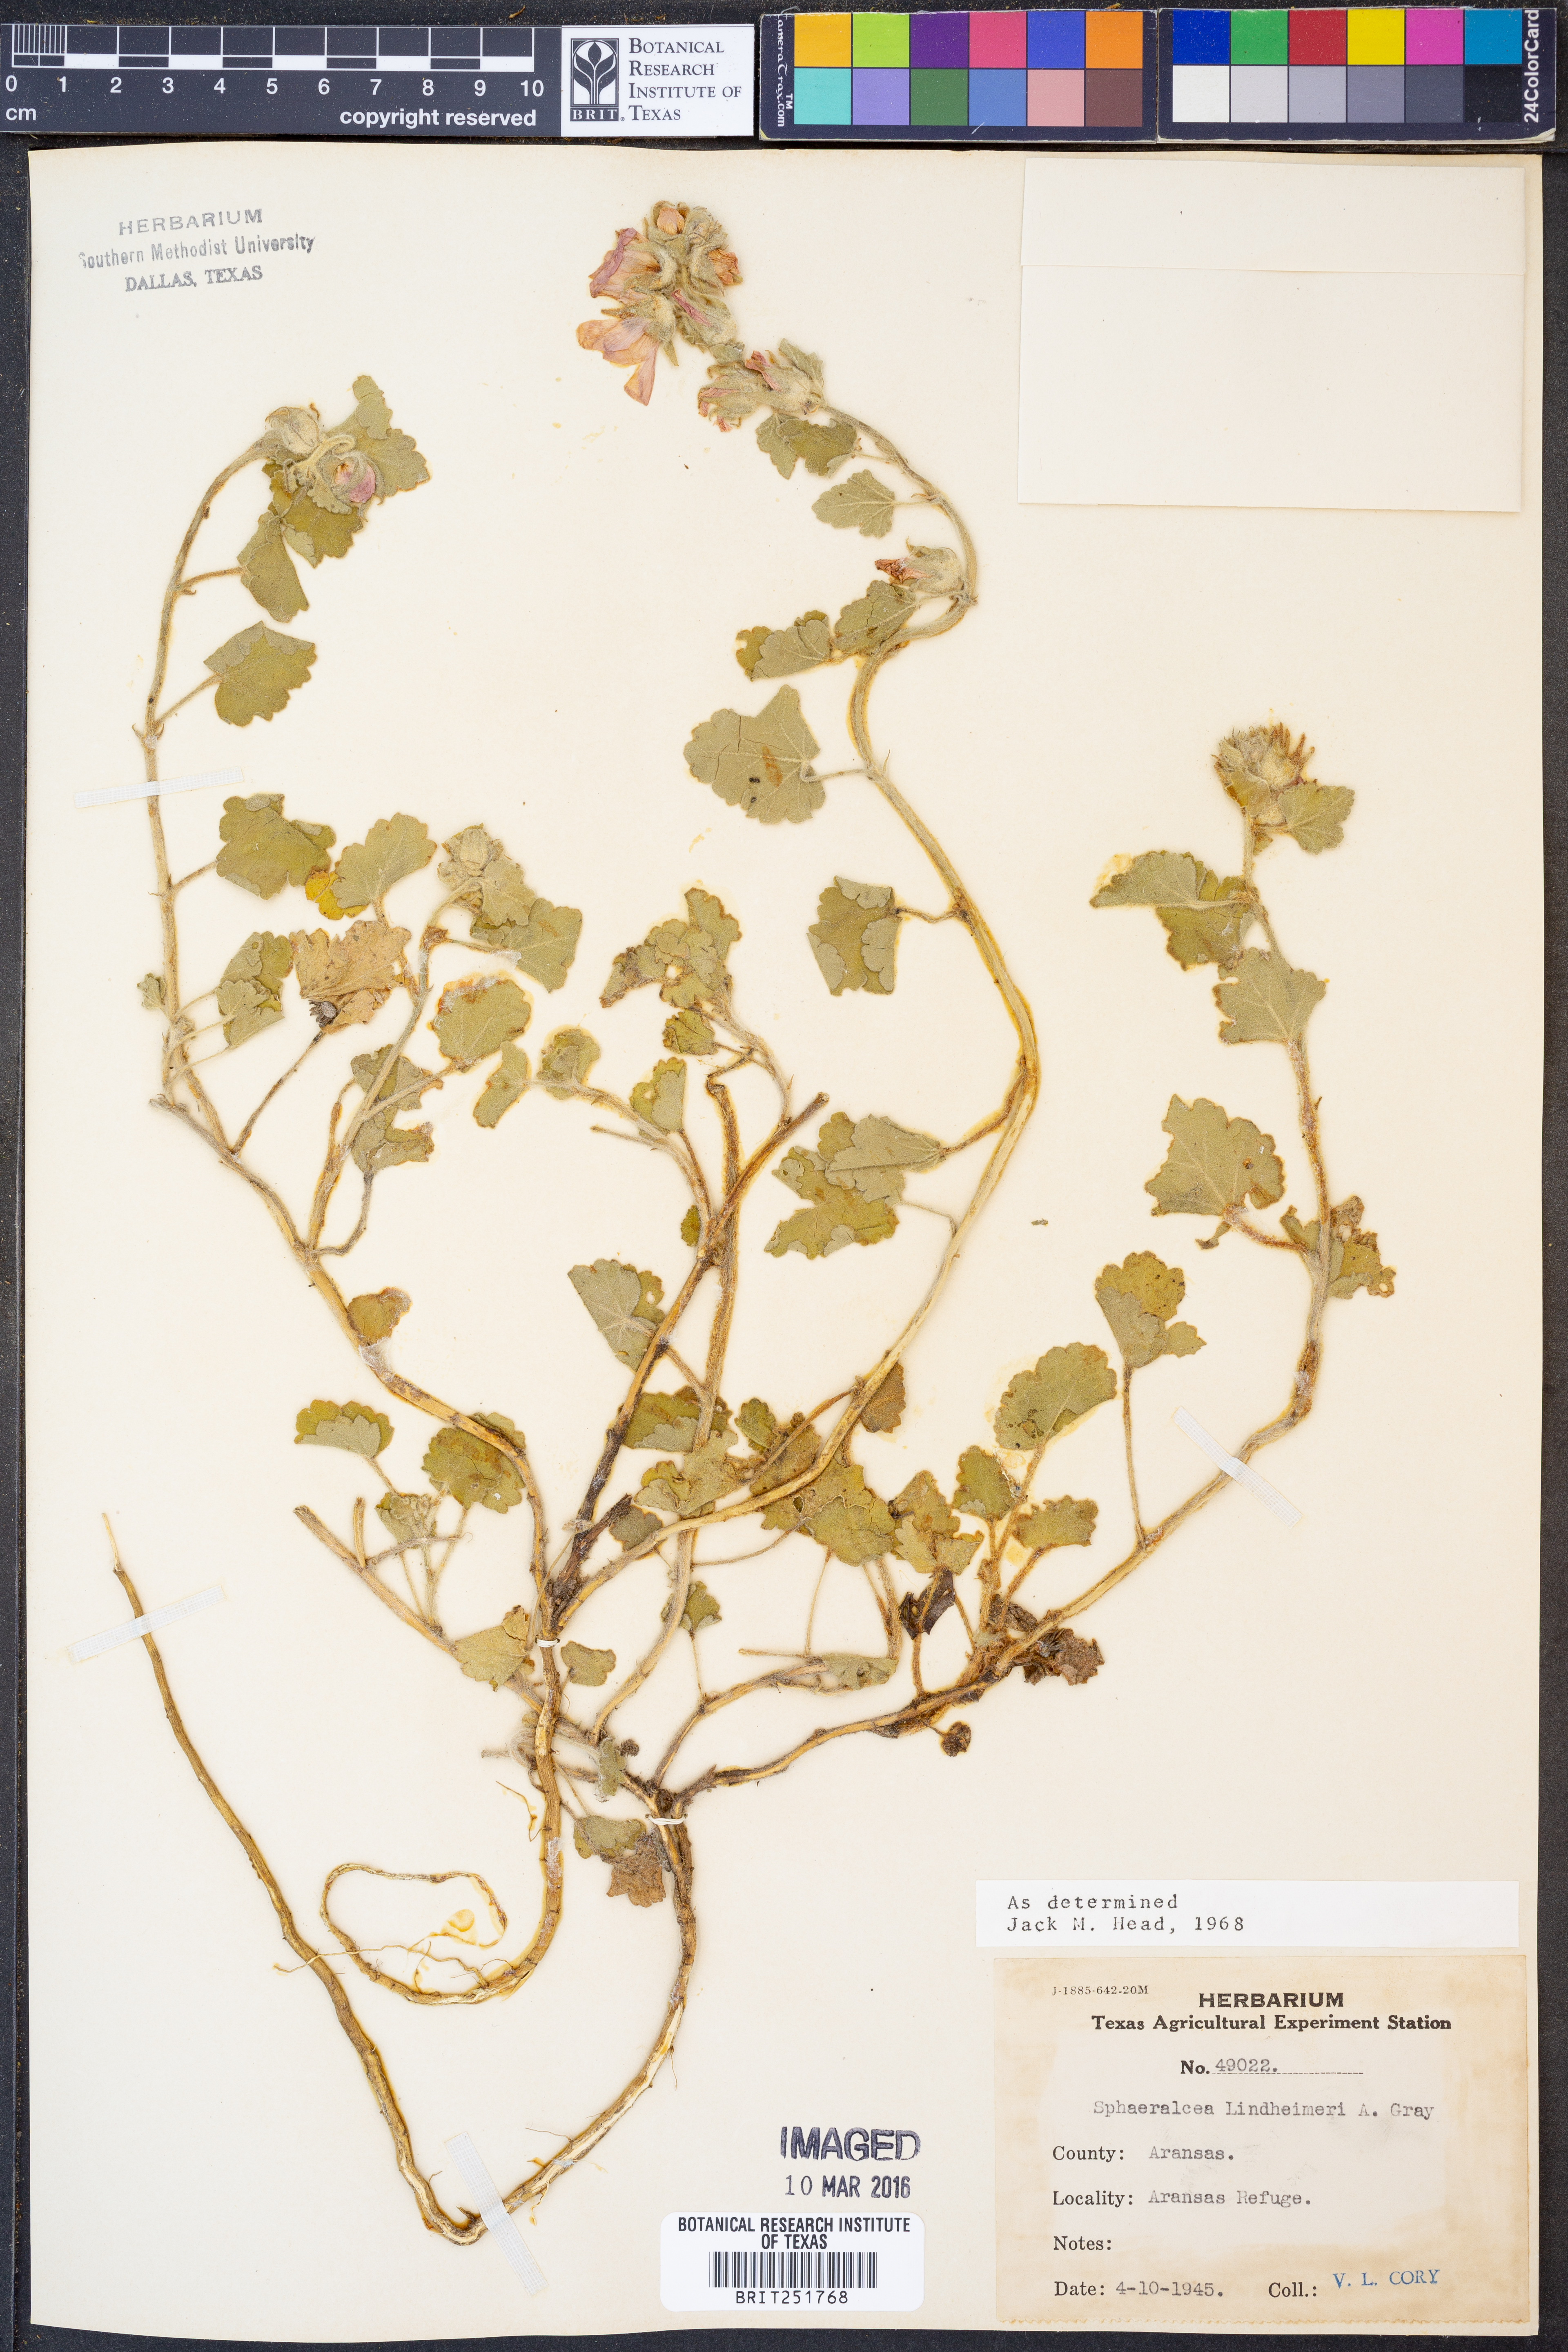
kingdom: Plantae
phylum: Tracheophyta
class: Magnoliopsida
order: Malvales
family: Malvaceae
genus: Sphaeralcea
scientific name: Sphaeralcea lindheimeri
